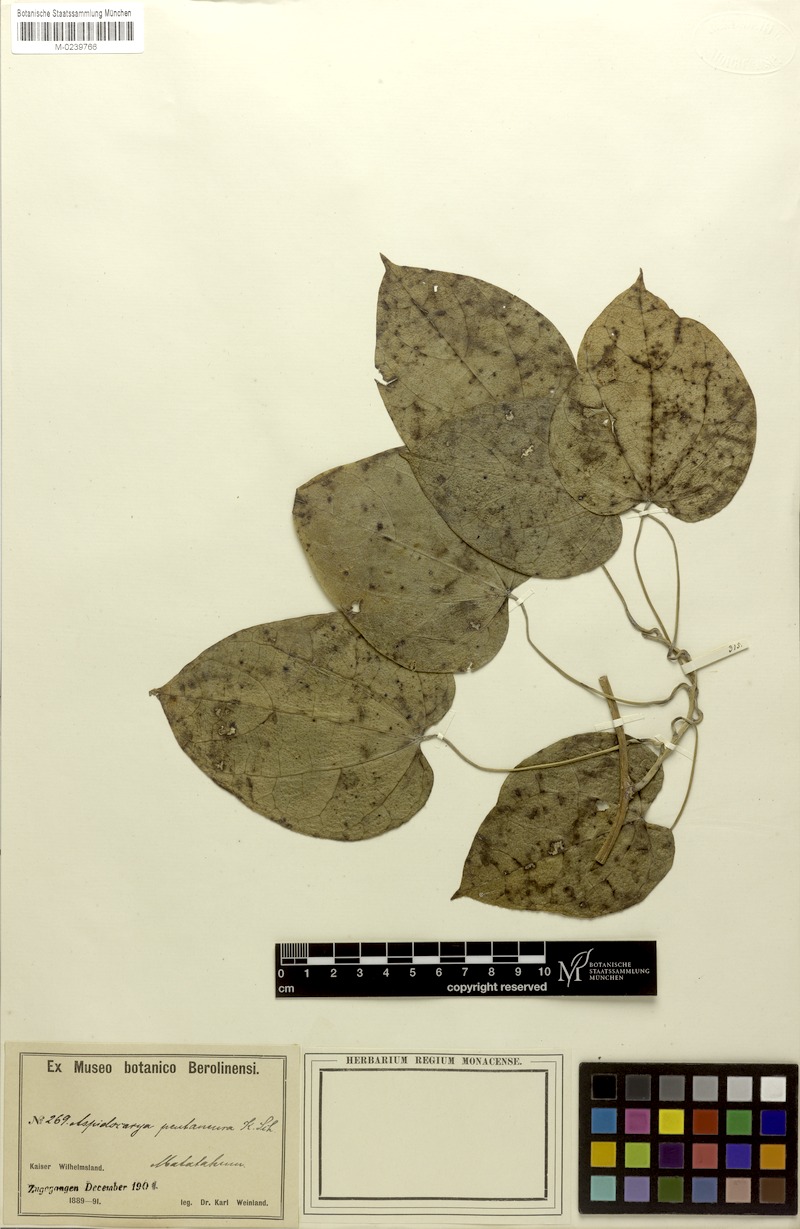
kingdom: Plantae
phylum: Tracheophyta
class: Magnoliopsida
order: Ranunculales
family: Menispermaceae
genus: Tinospora
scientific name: Tinospora dissitiflora
